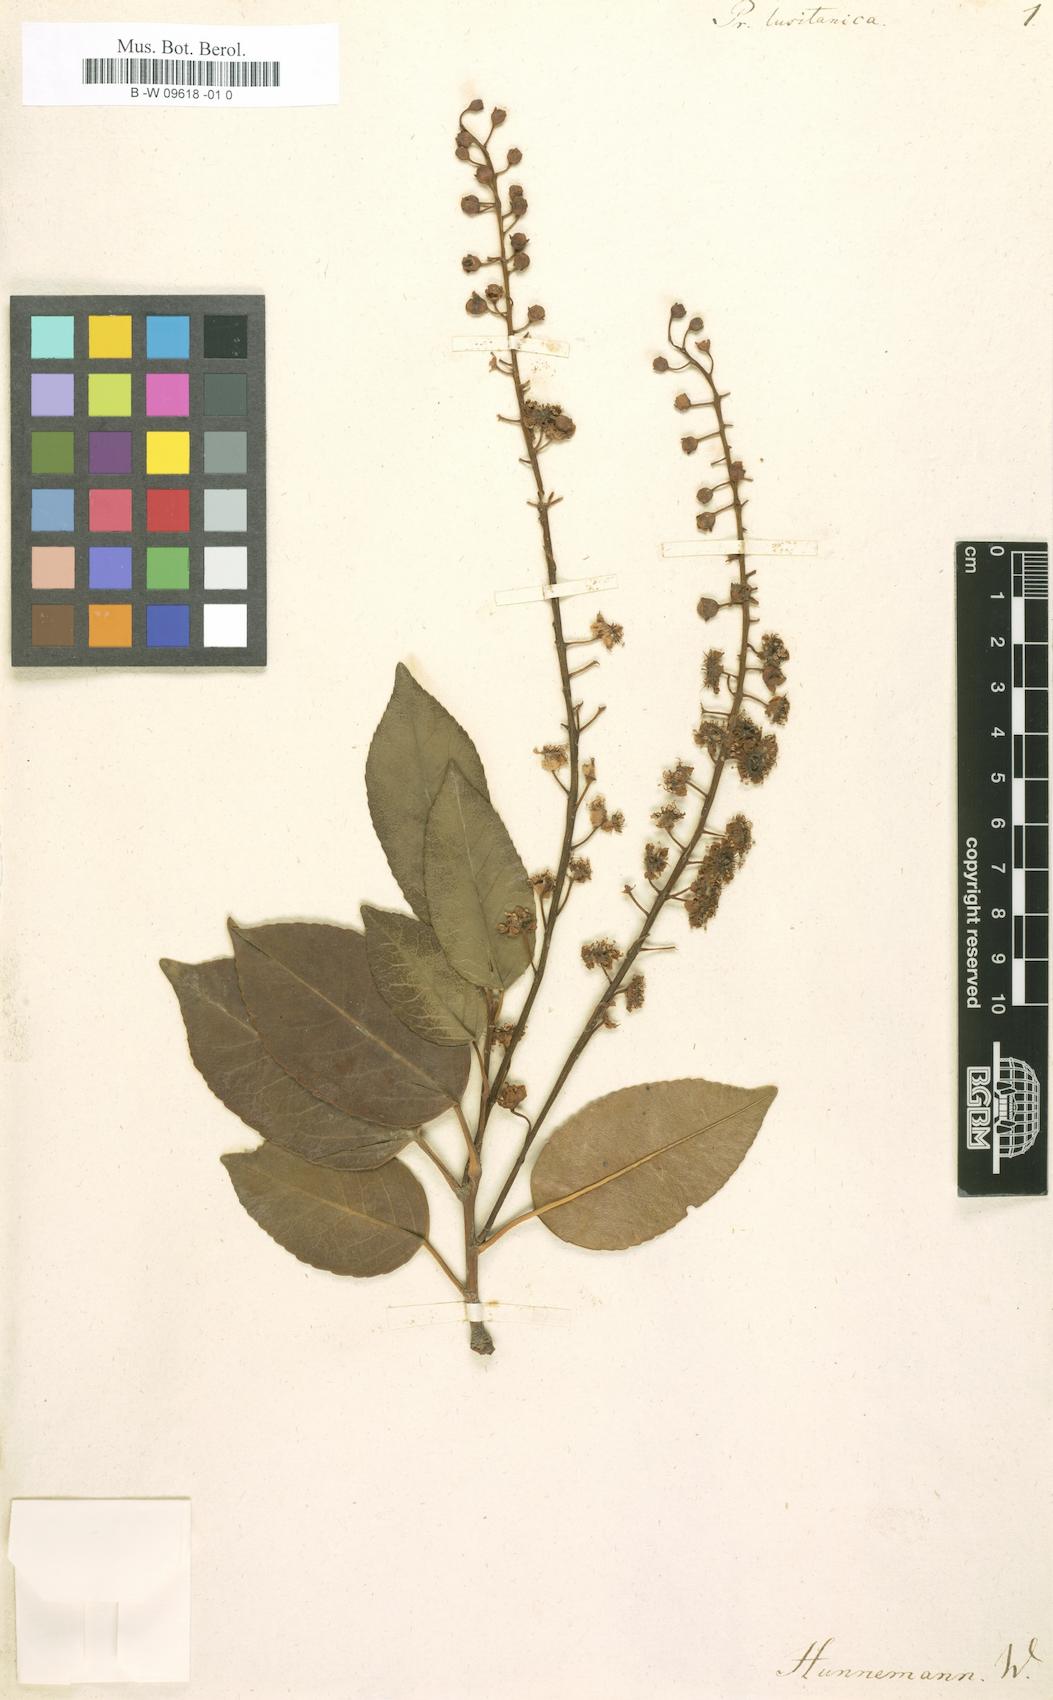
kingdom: Plantae
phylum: Tracheophyta
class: Magnoliopsida
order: Rosales
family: Rosaceae
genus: Prunus
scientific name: Prunus lusitanica
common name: Portugal laurel
